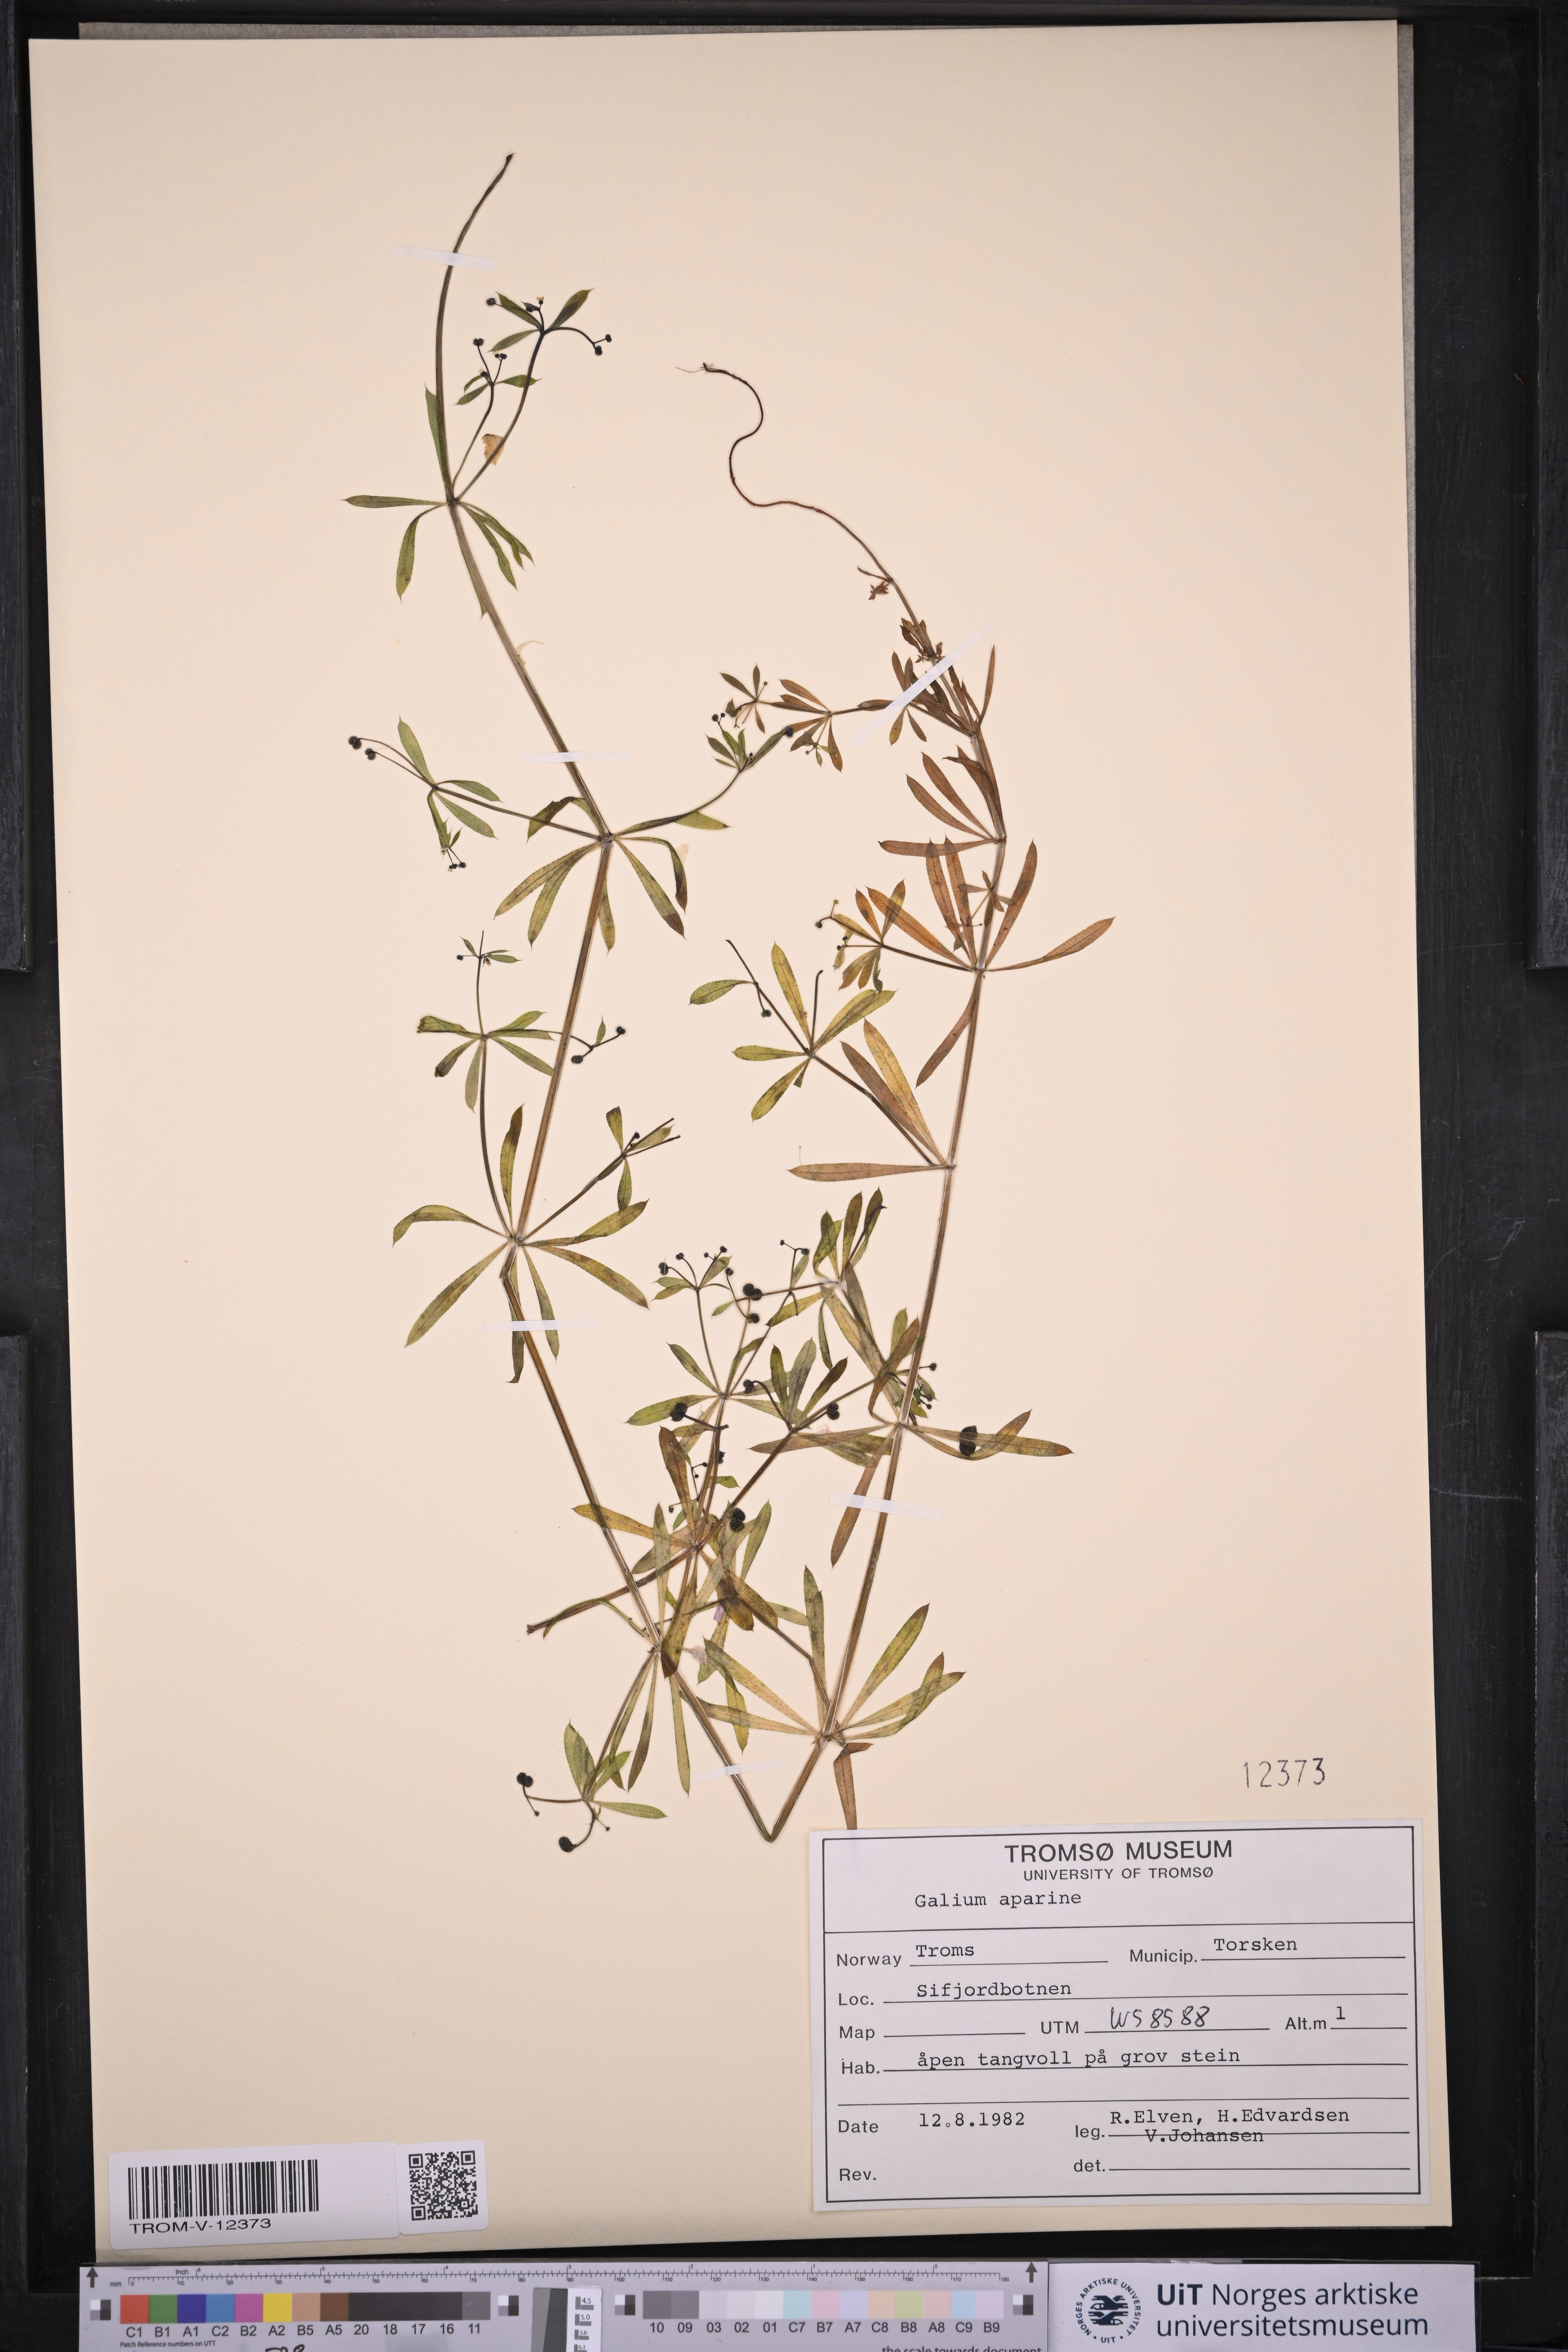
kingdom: Plantae
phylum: Tracheophyta
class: Magnoliopsida
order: Gentianales
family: Rubiaceae
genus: Galium
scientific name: Galium aparine
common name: Cleavers
